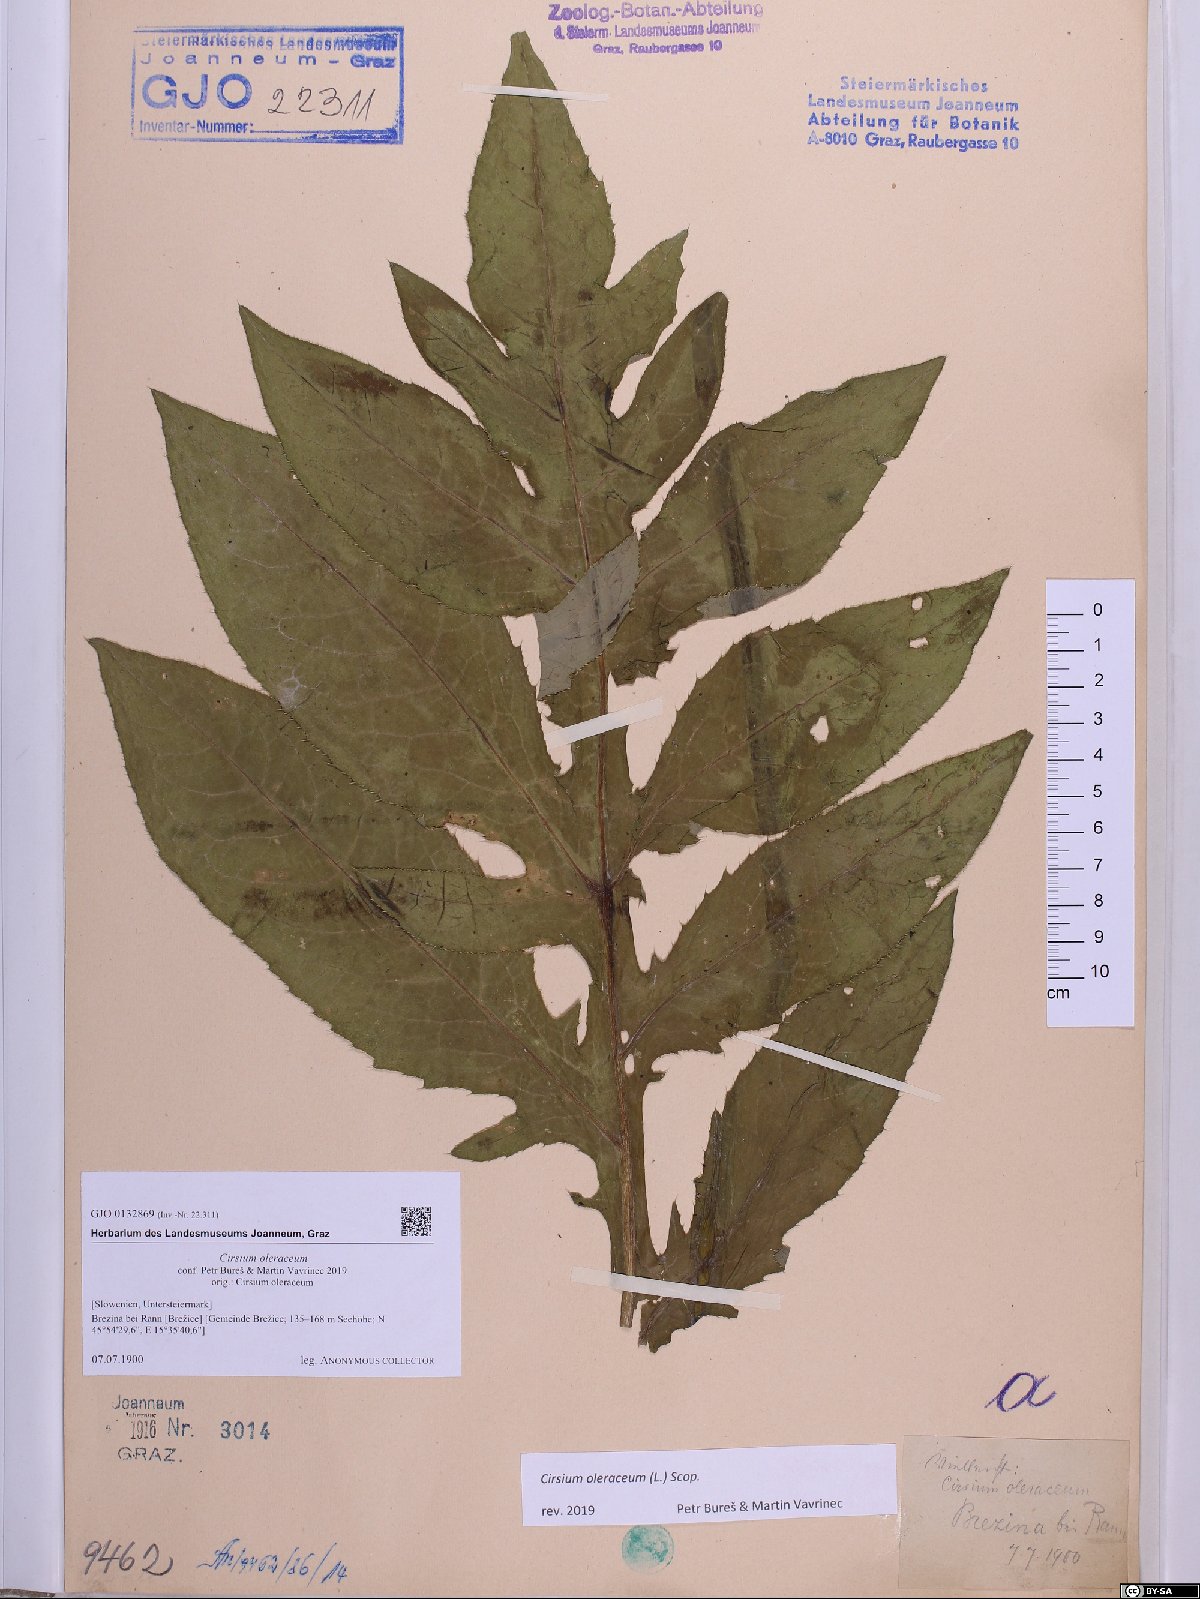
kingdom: Plantae
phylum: Tracheophyta
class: Magnoliopsida
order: Asterales
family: Asteraceae
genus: Cirsium
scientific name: Cirsium oleraceum
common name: Cabbage thistle
